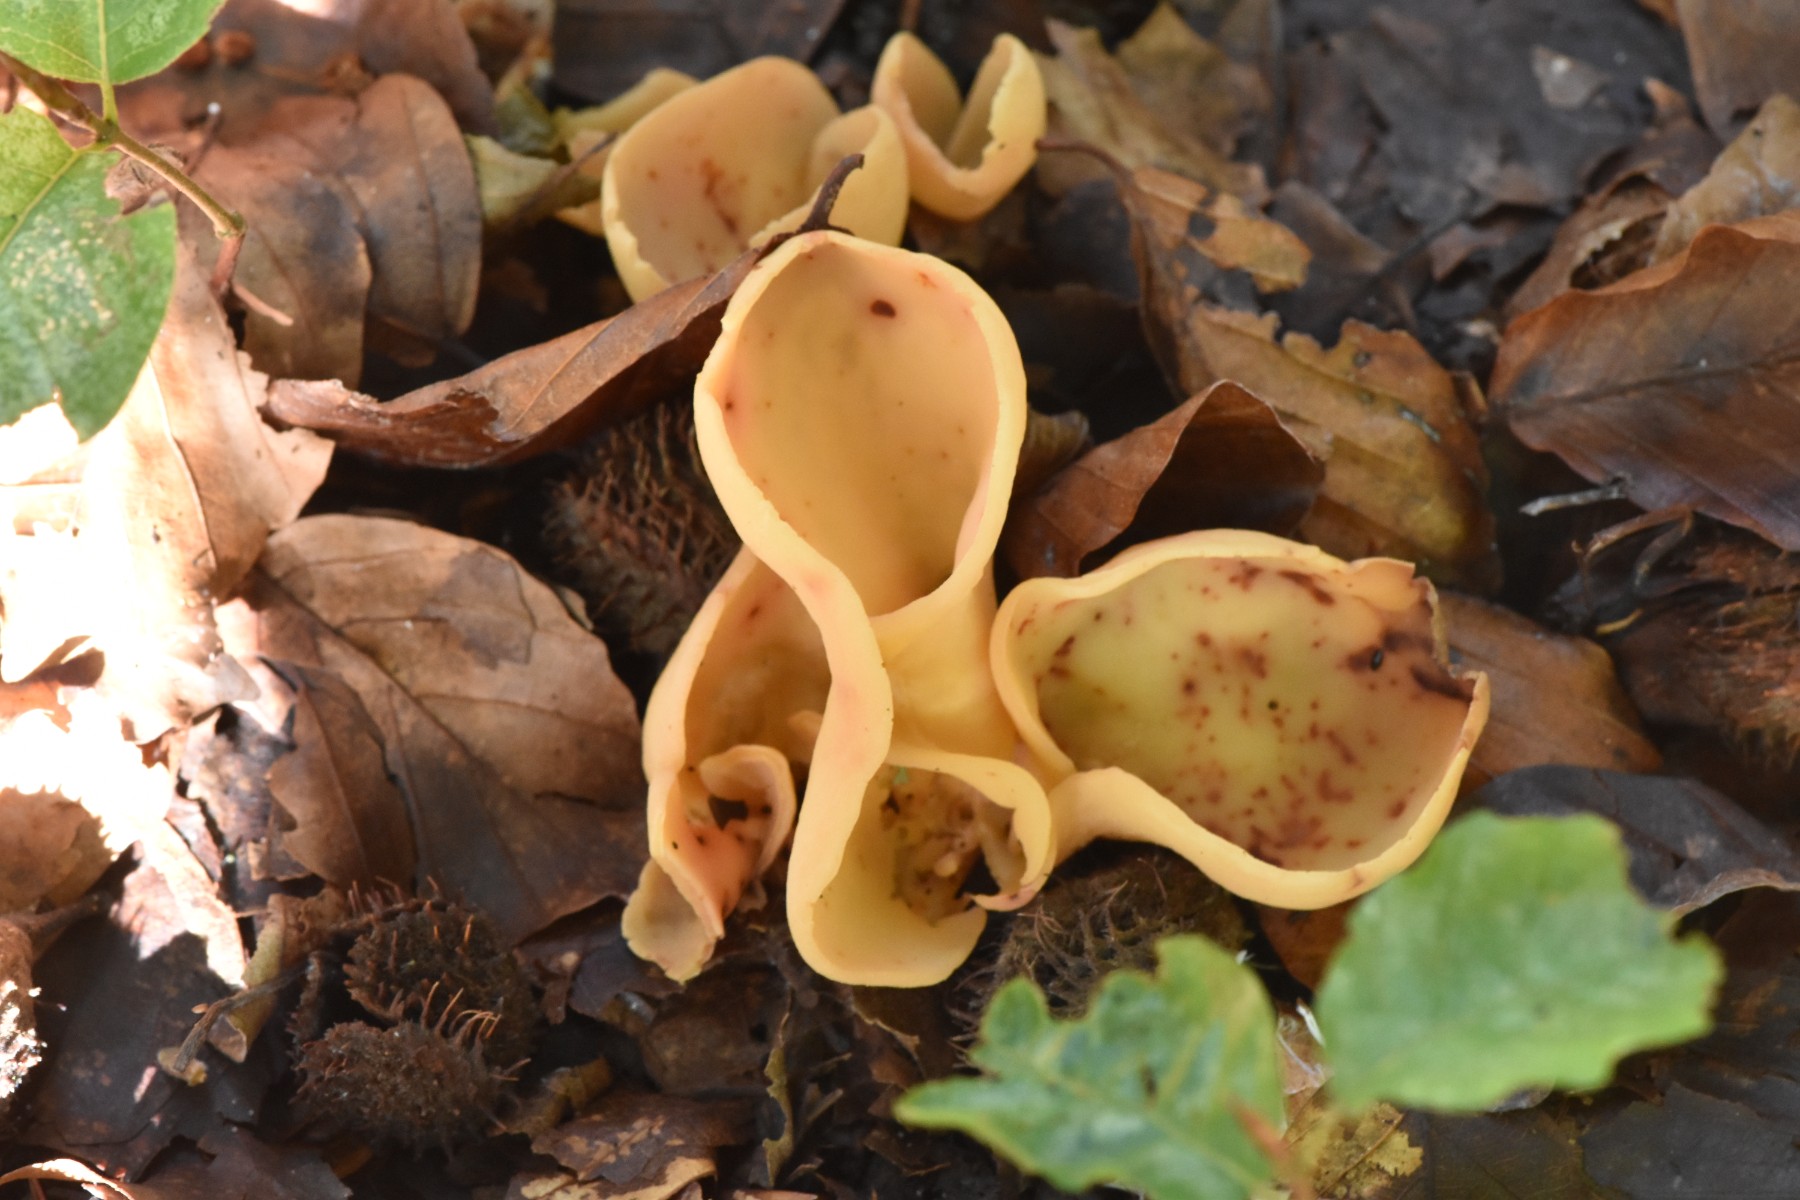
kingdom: Fungi
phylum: Ascomycota
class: Pezizomycetes
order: Pezizales
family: Otideaceae
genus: Otidea
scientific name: Otidea onotica
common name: æsel-ørebæger
